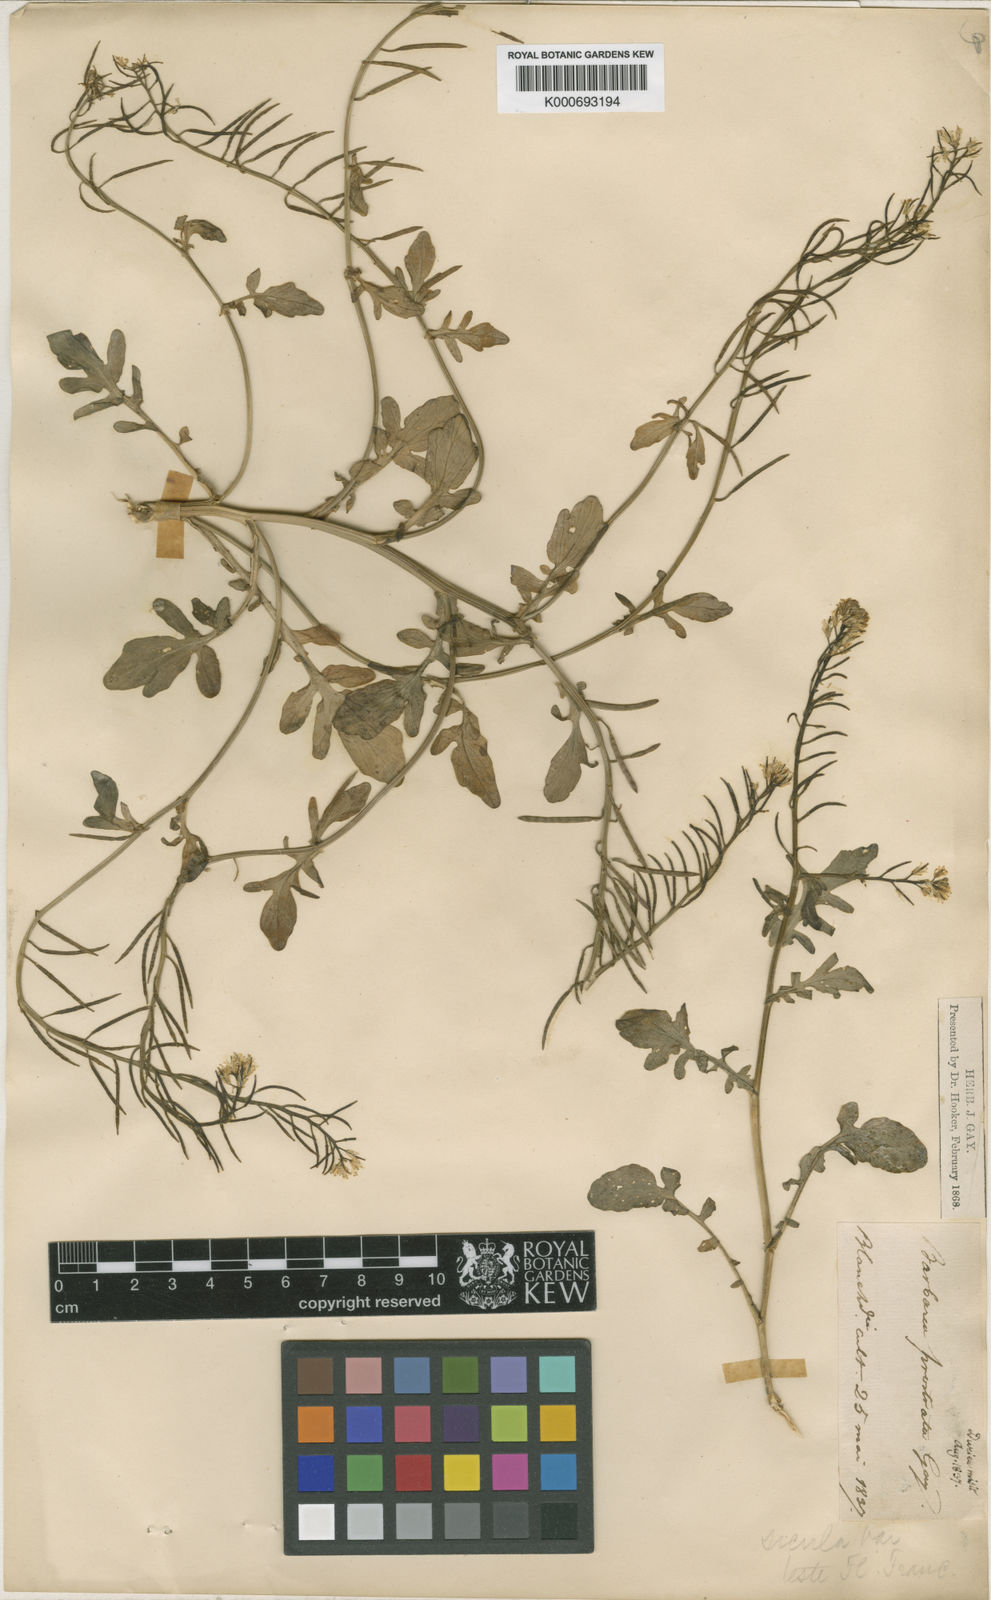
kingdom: Plantae
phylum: Tracheophyta
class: Magnoliopsida
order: Brassicales
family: Brassicaceae
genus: Barbarea
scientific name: Barbarea sicula
